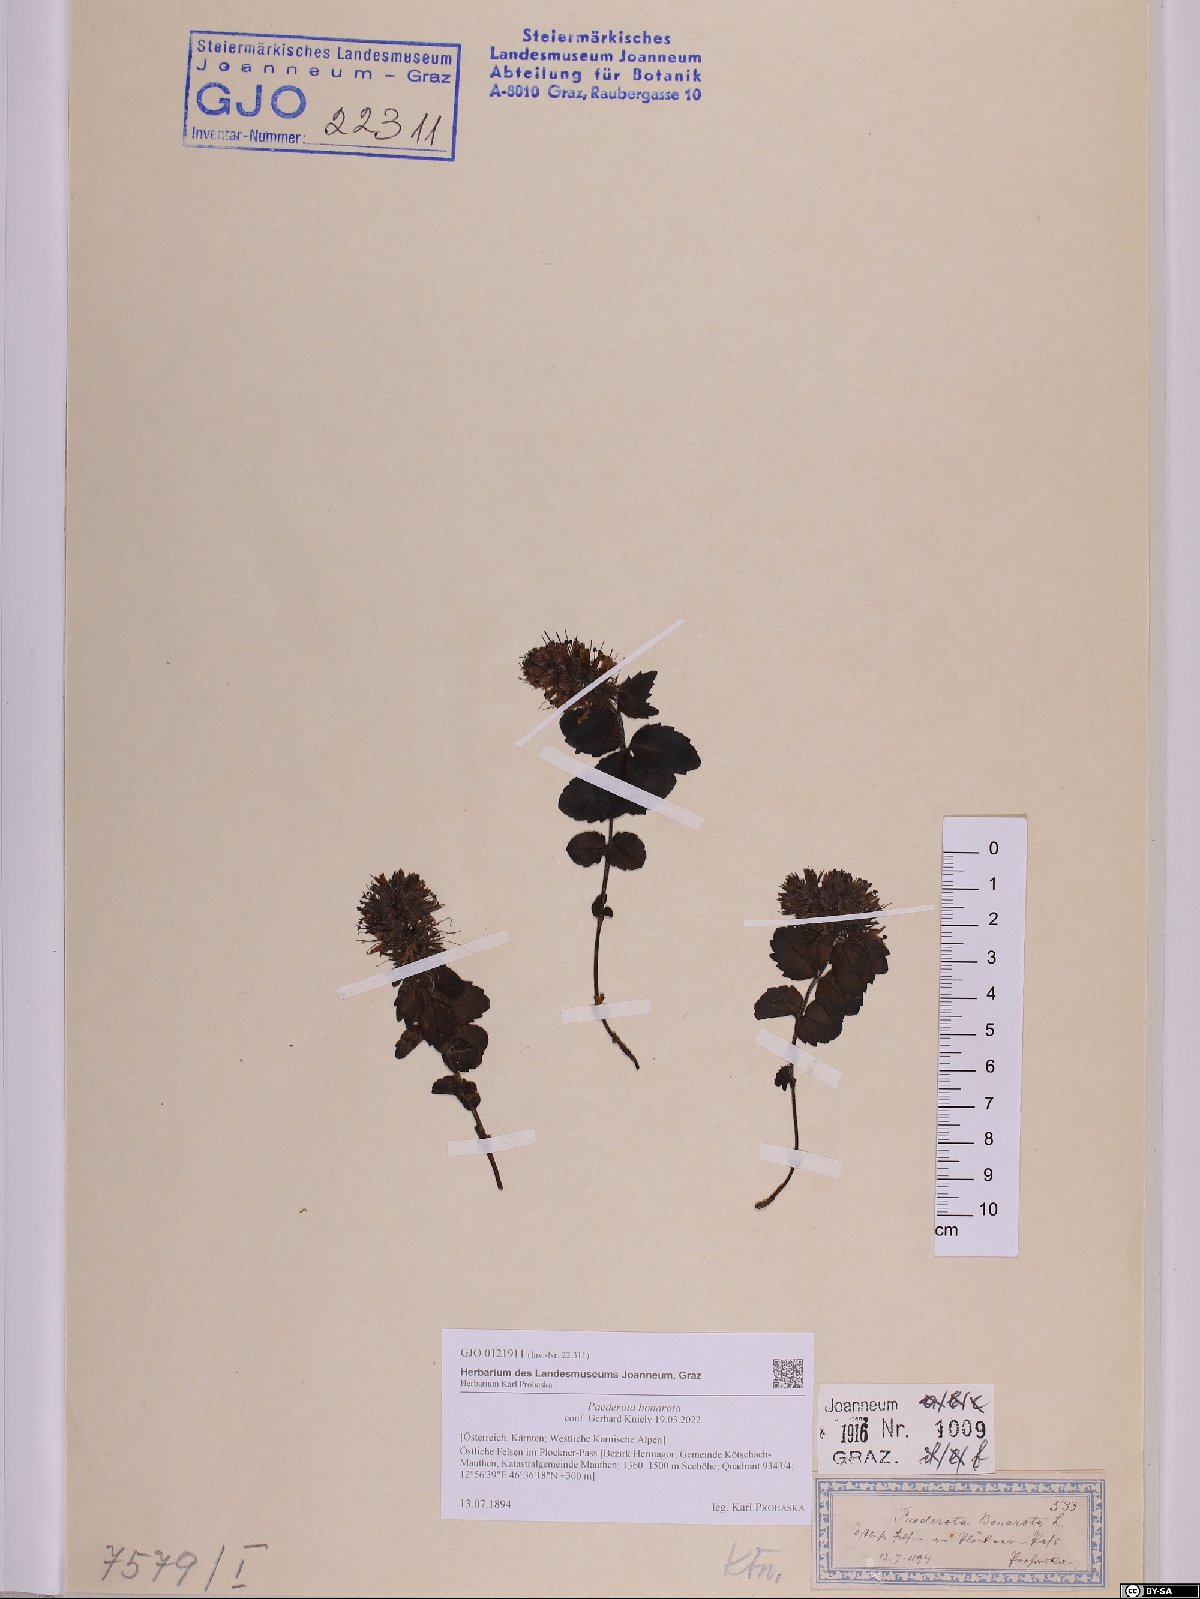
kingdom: Plantae
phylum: Tracheophyta
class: Magnoliopsida
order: Lamiales
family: Plantaginaceae
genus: Paederota
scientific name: Paederota bonarota
